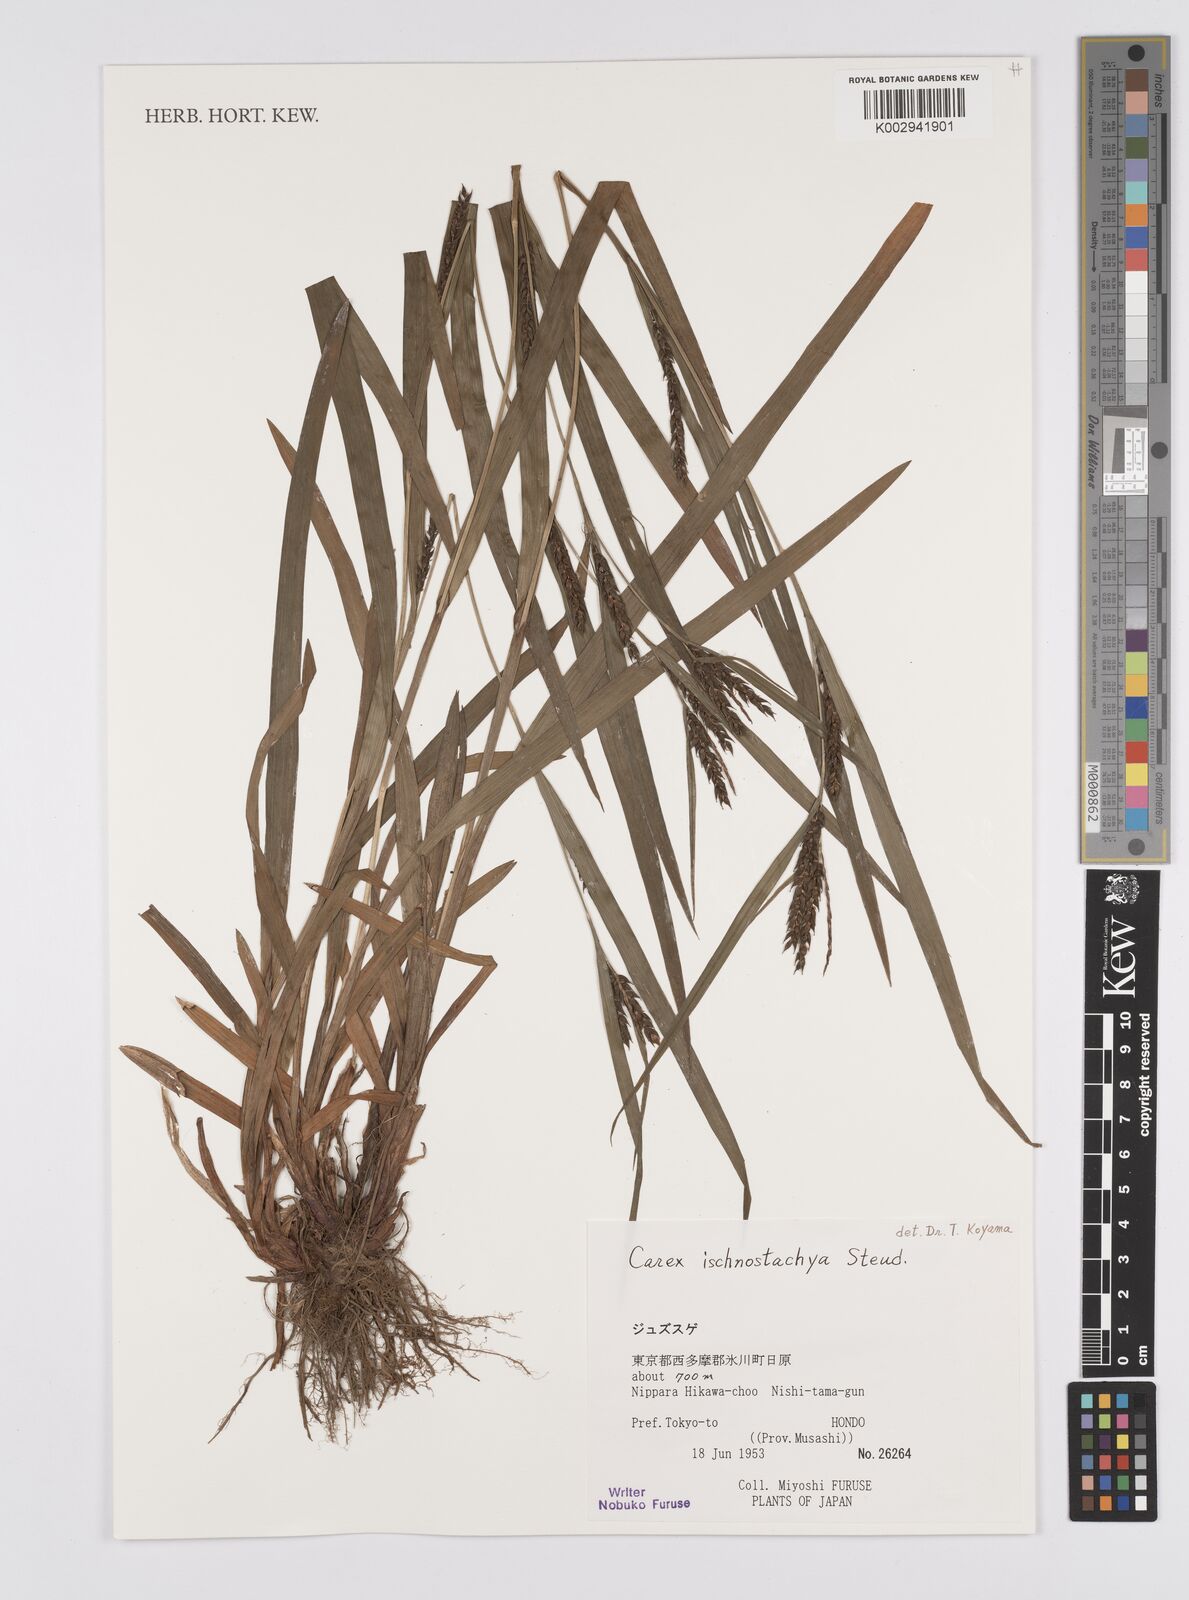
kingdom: Plantae
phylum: Tracheophyta
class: Liliopsida
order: Poales
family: Cyperaceae
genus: Carex
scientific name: Carex ischnostachya
